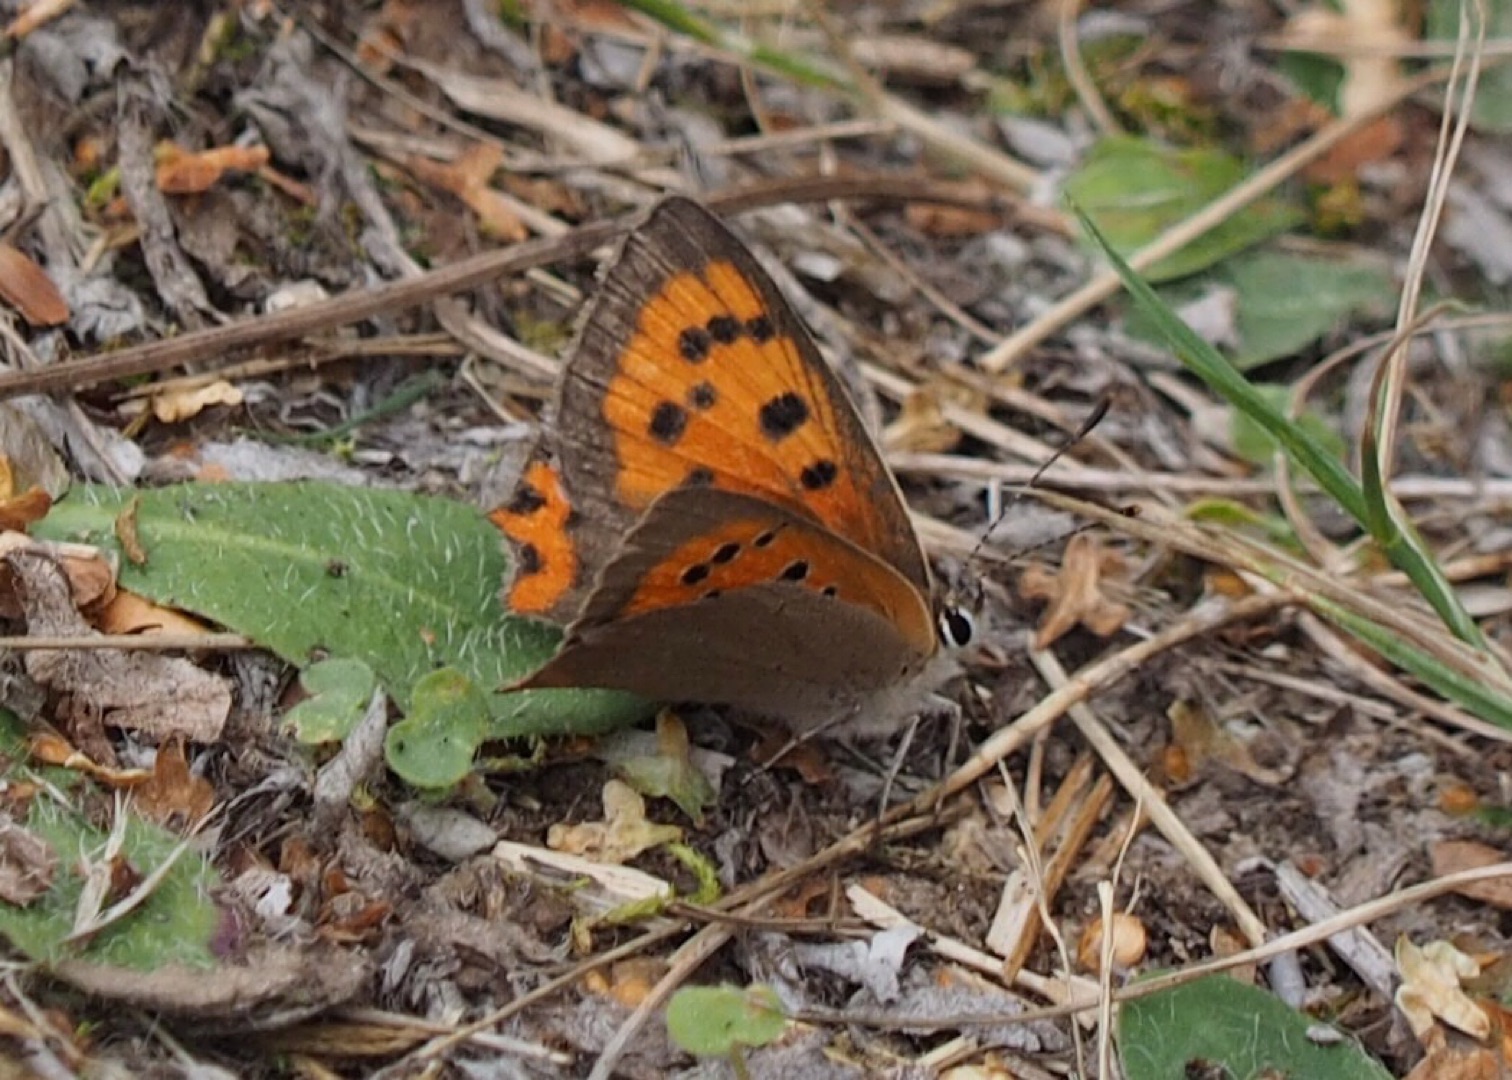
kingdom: Animalia
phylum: Arthropoda
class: Insecta
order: Lepidoptera
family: Lycaenidae
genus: Lycaena
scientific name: Lycaena phlaeas
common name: Lille ildfugl
